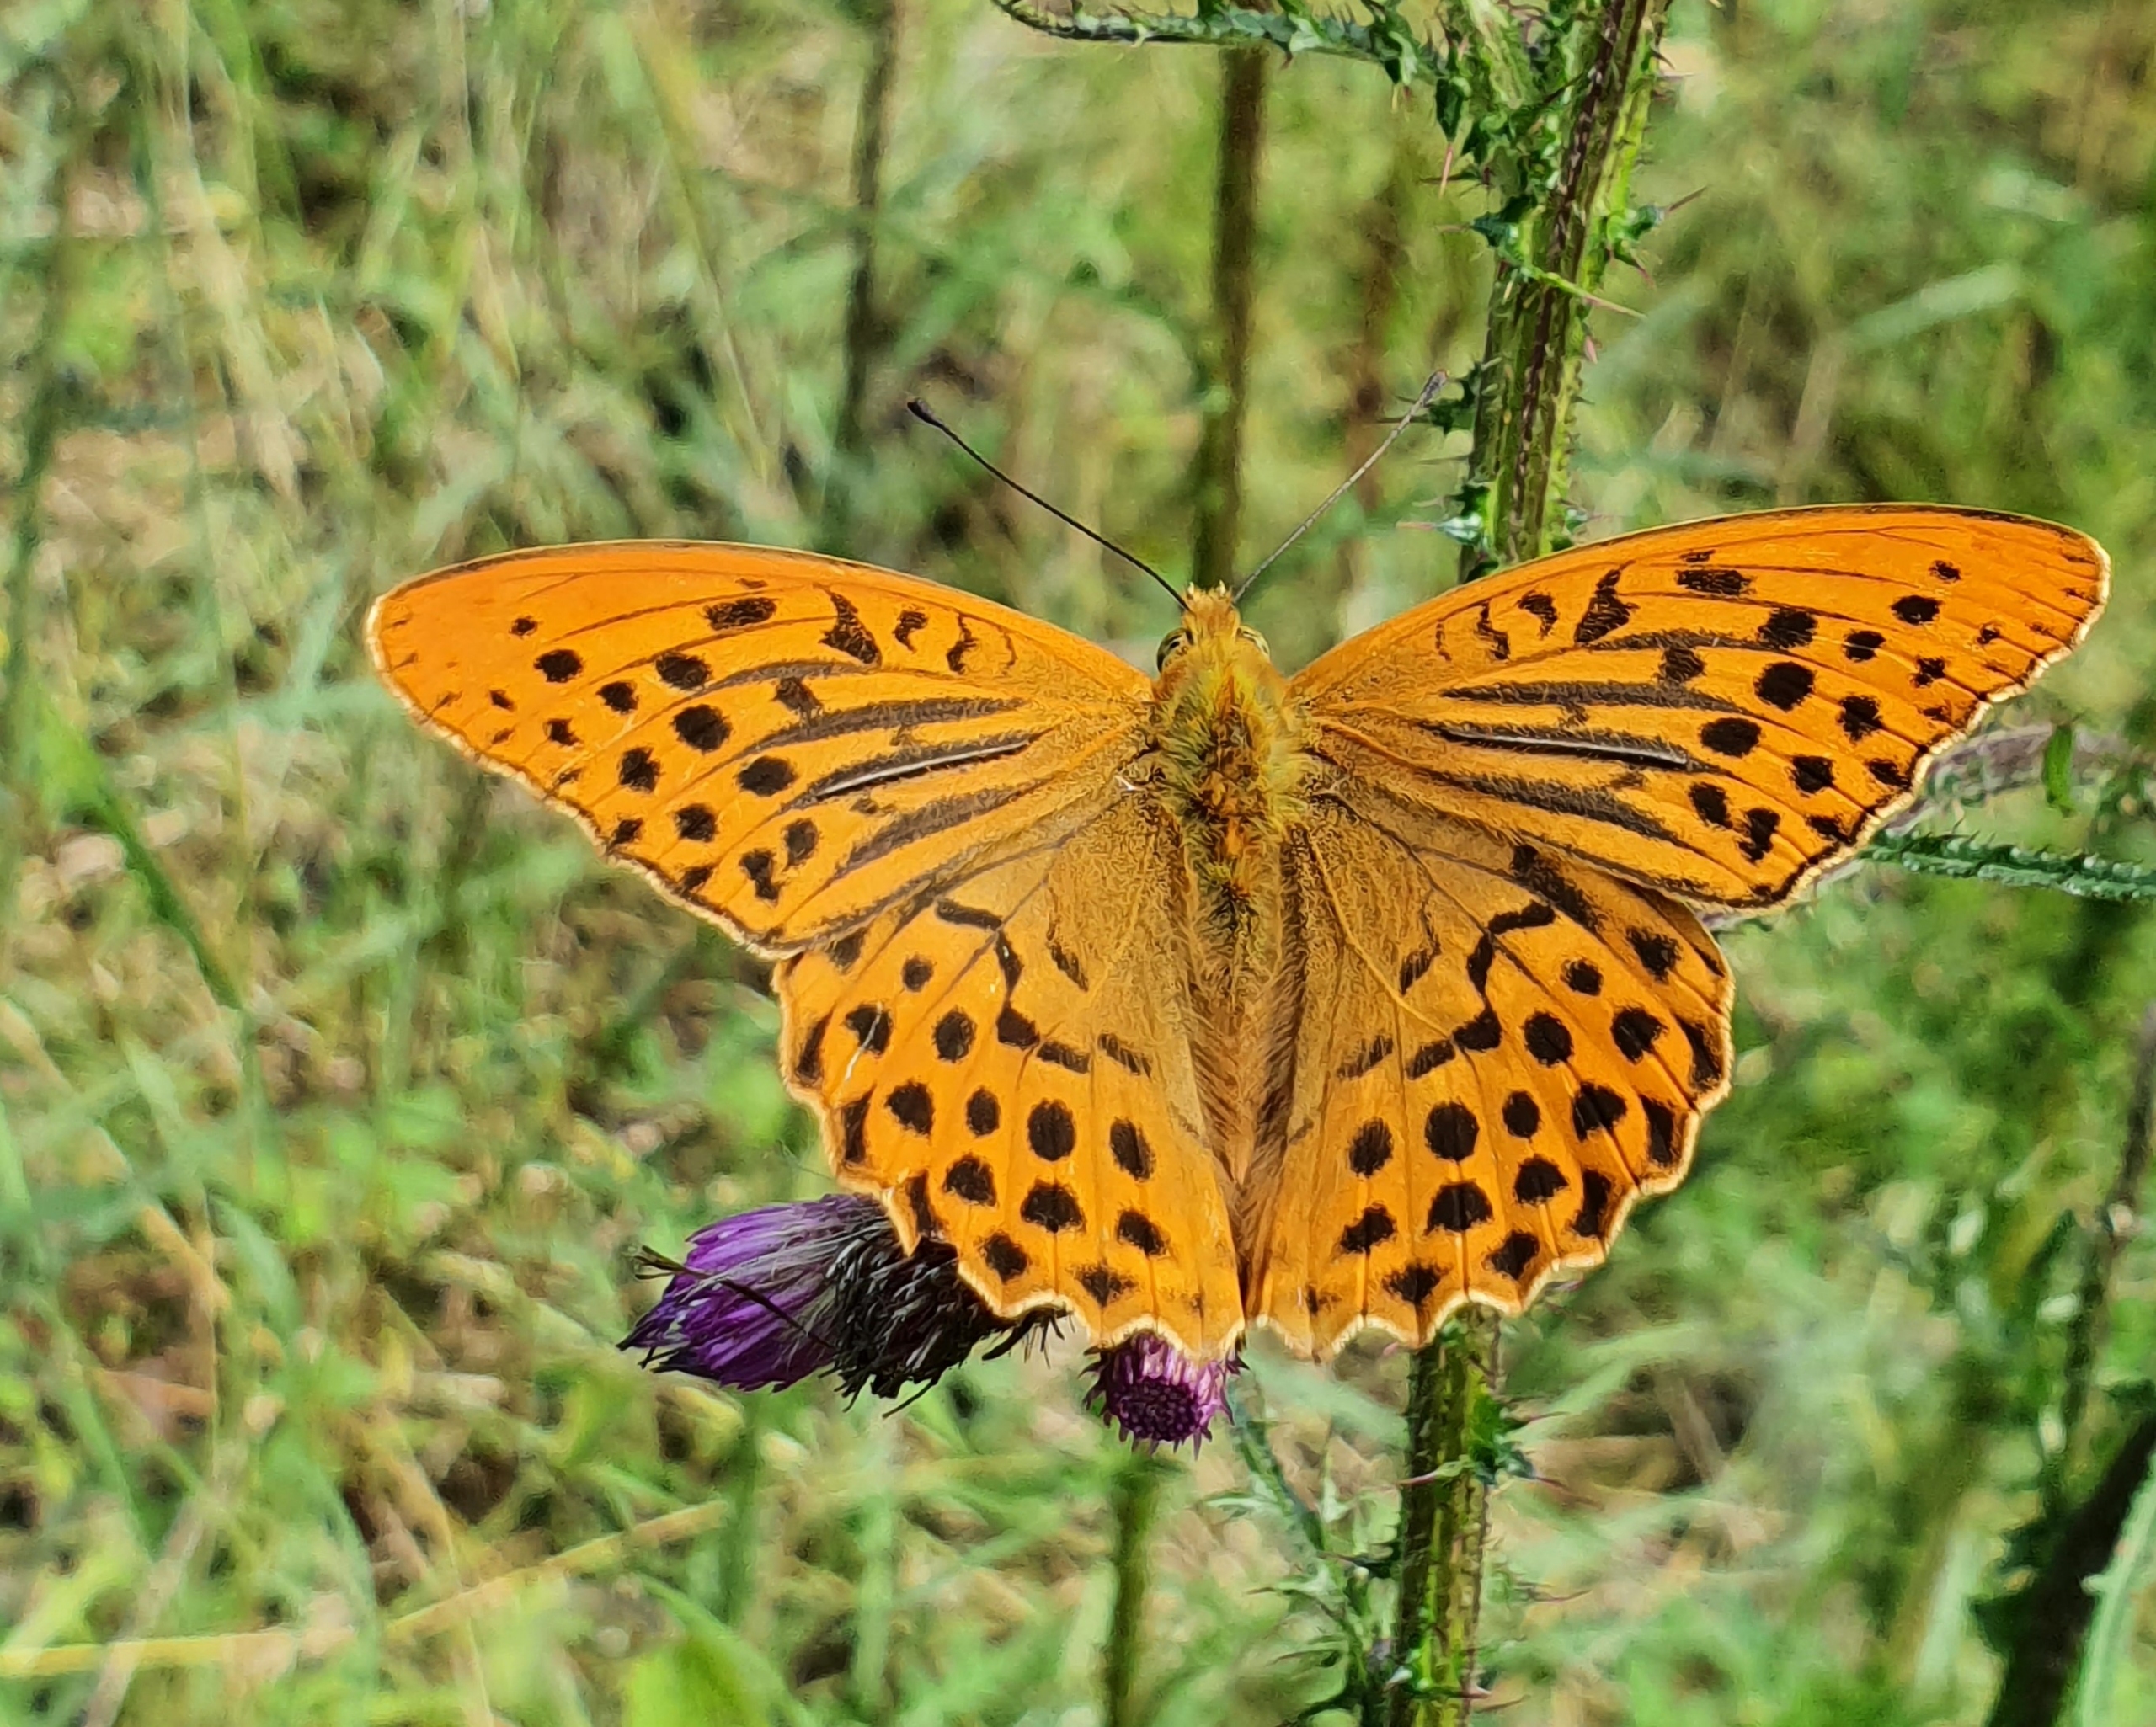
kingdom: Animalia
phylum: Arthropoda
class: Insecta
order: Lepidoptera
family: Nymphalidae
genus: Argynnis
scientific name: Argynnis paphia
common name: Kejserkåbe
